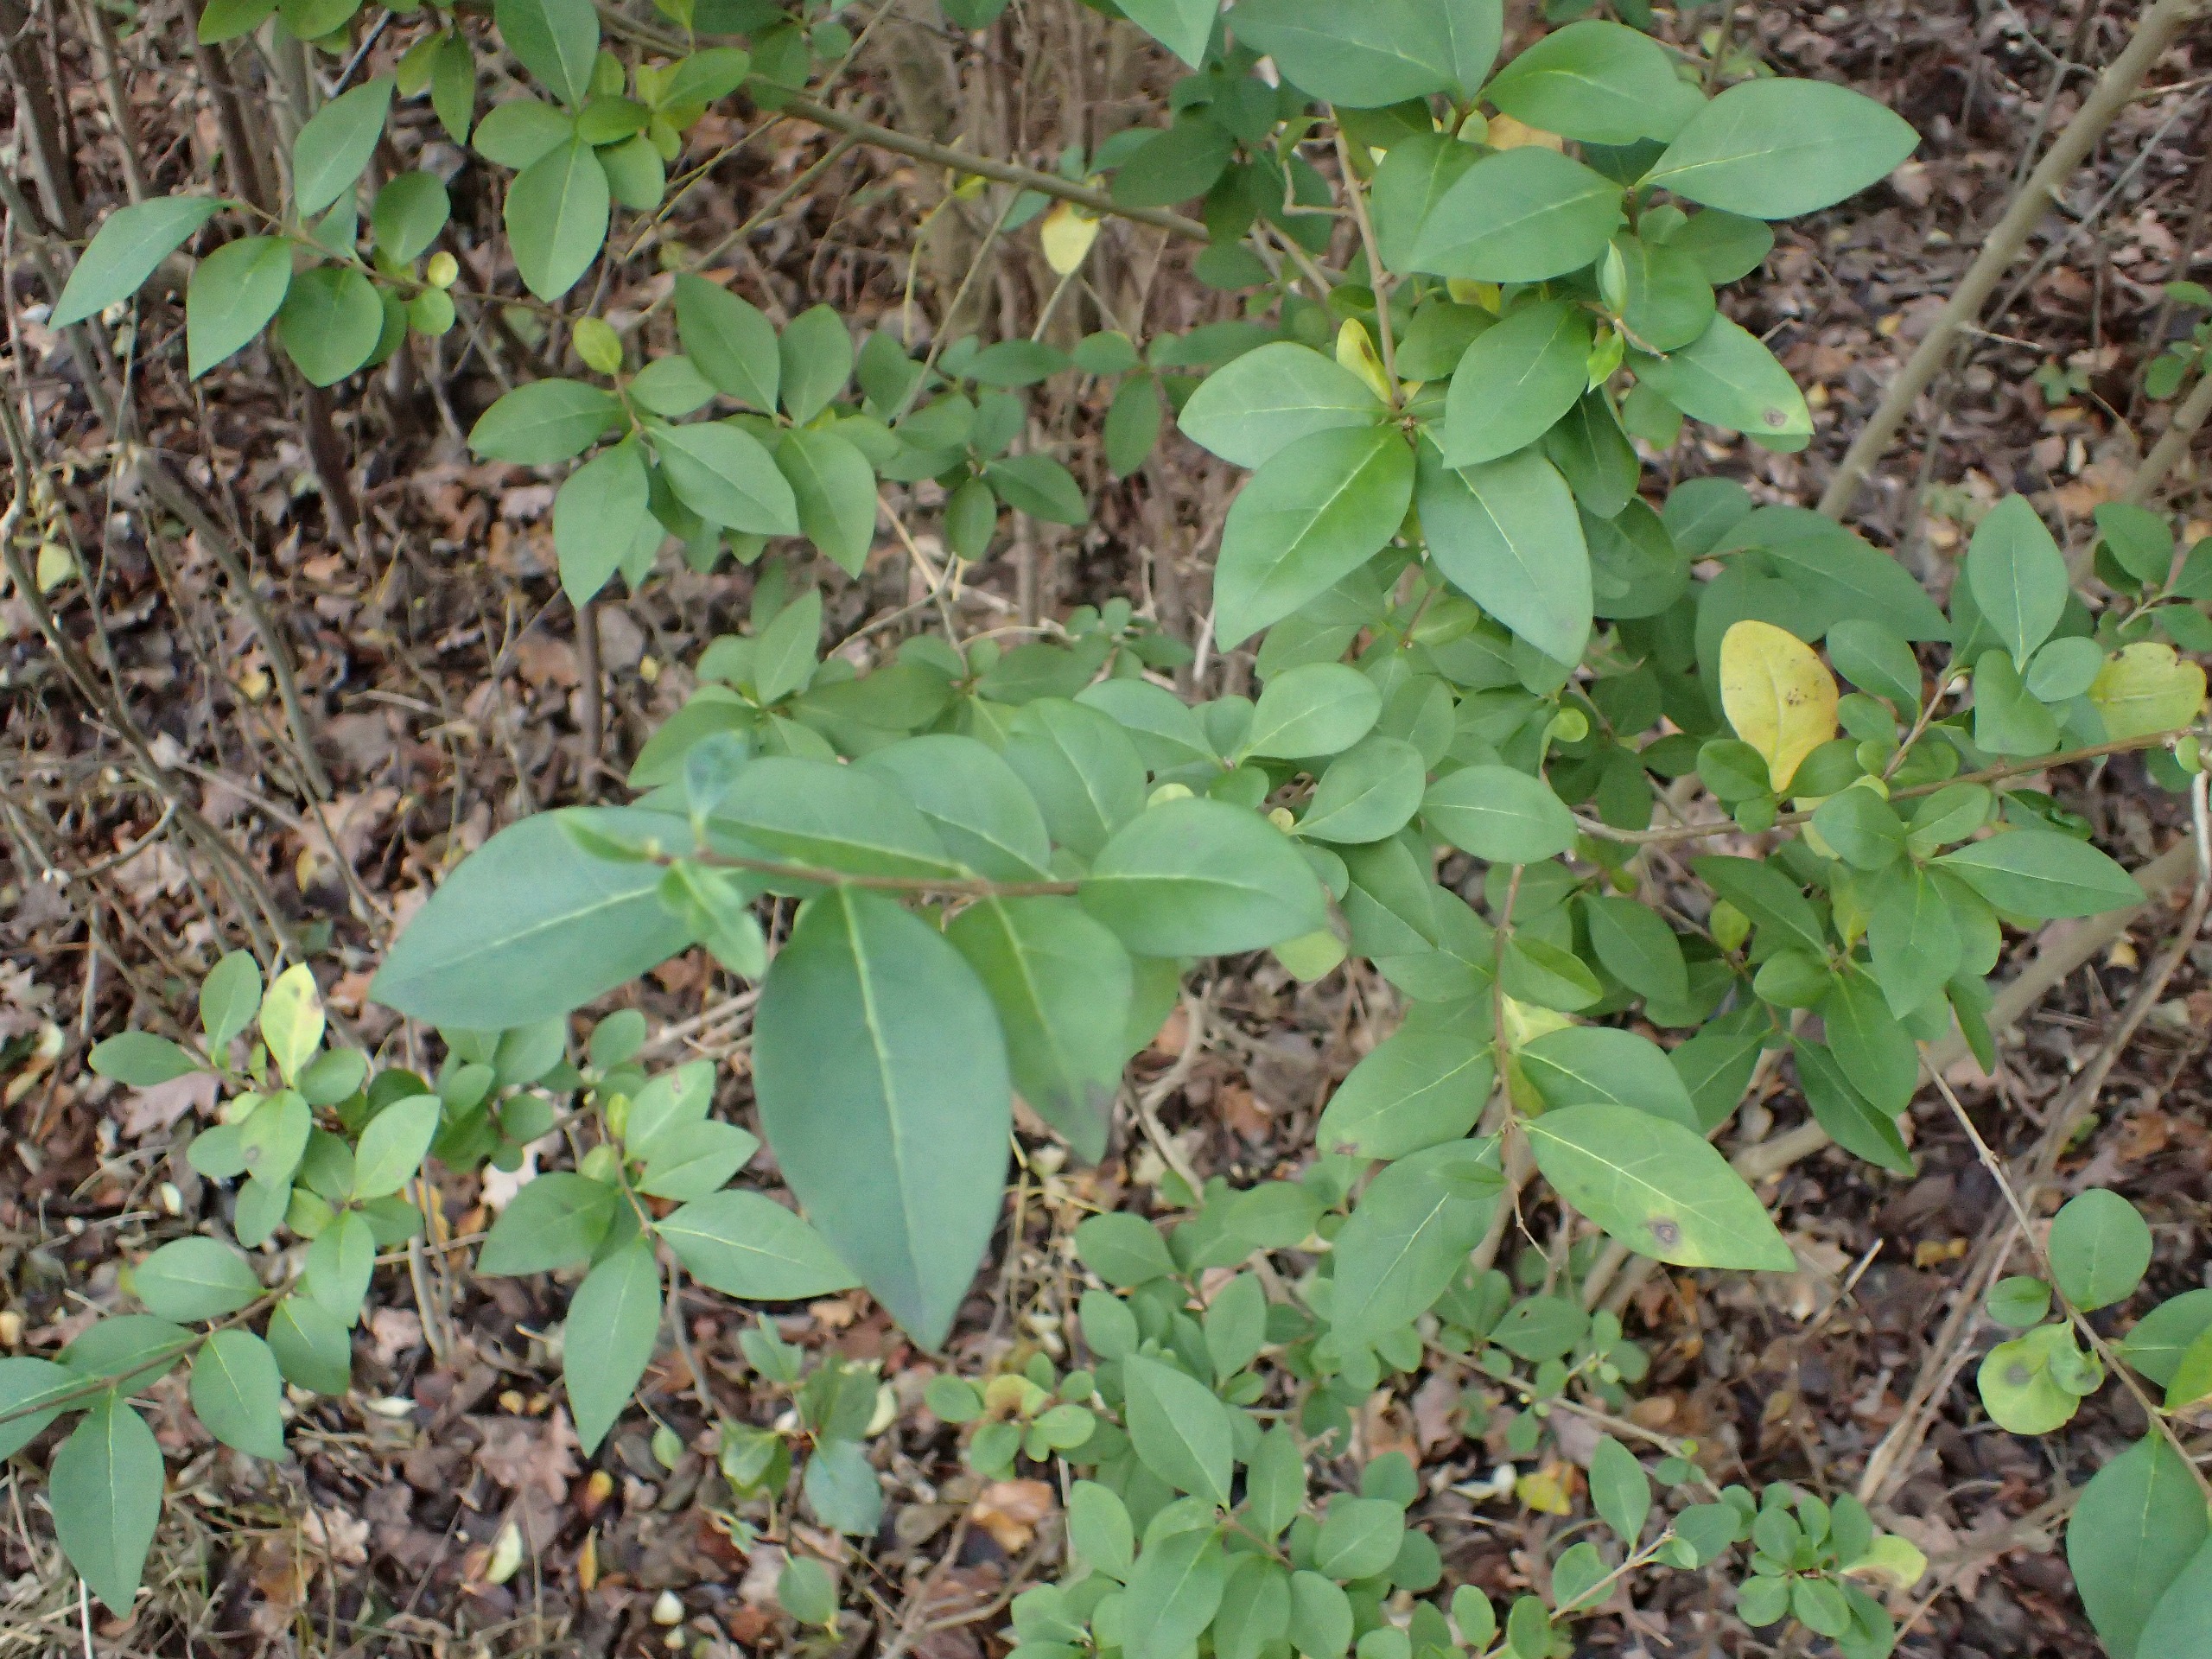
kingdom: Plantae
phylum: Tracheophyta
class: Magnoliopsida
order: Lamiales
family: Oleaceae
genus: Ligustrum
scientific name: Ligustrum ovalifolium
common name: Storbladet liguster
